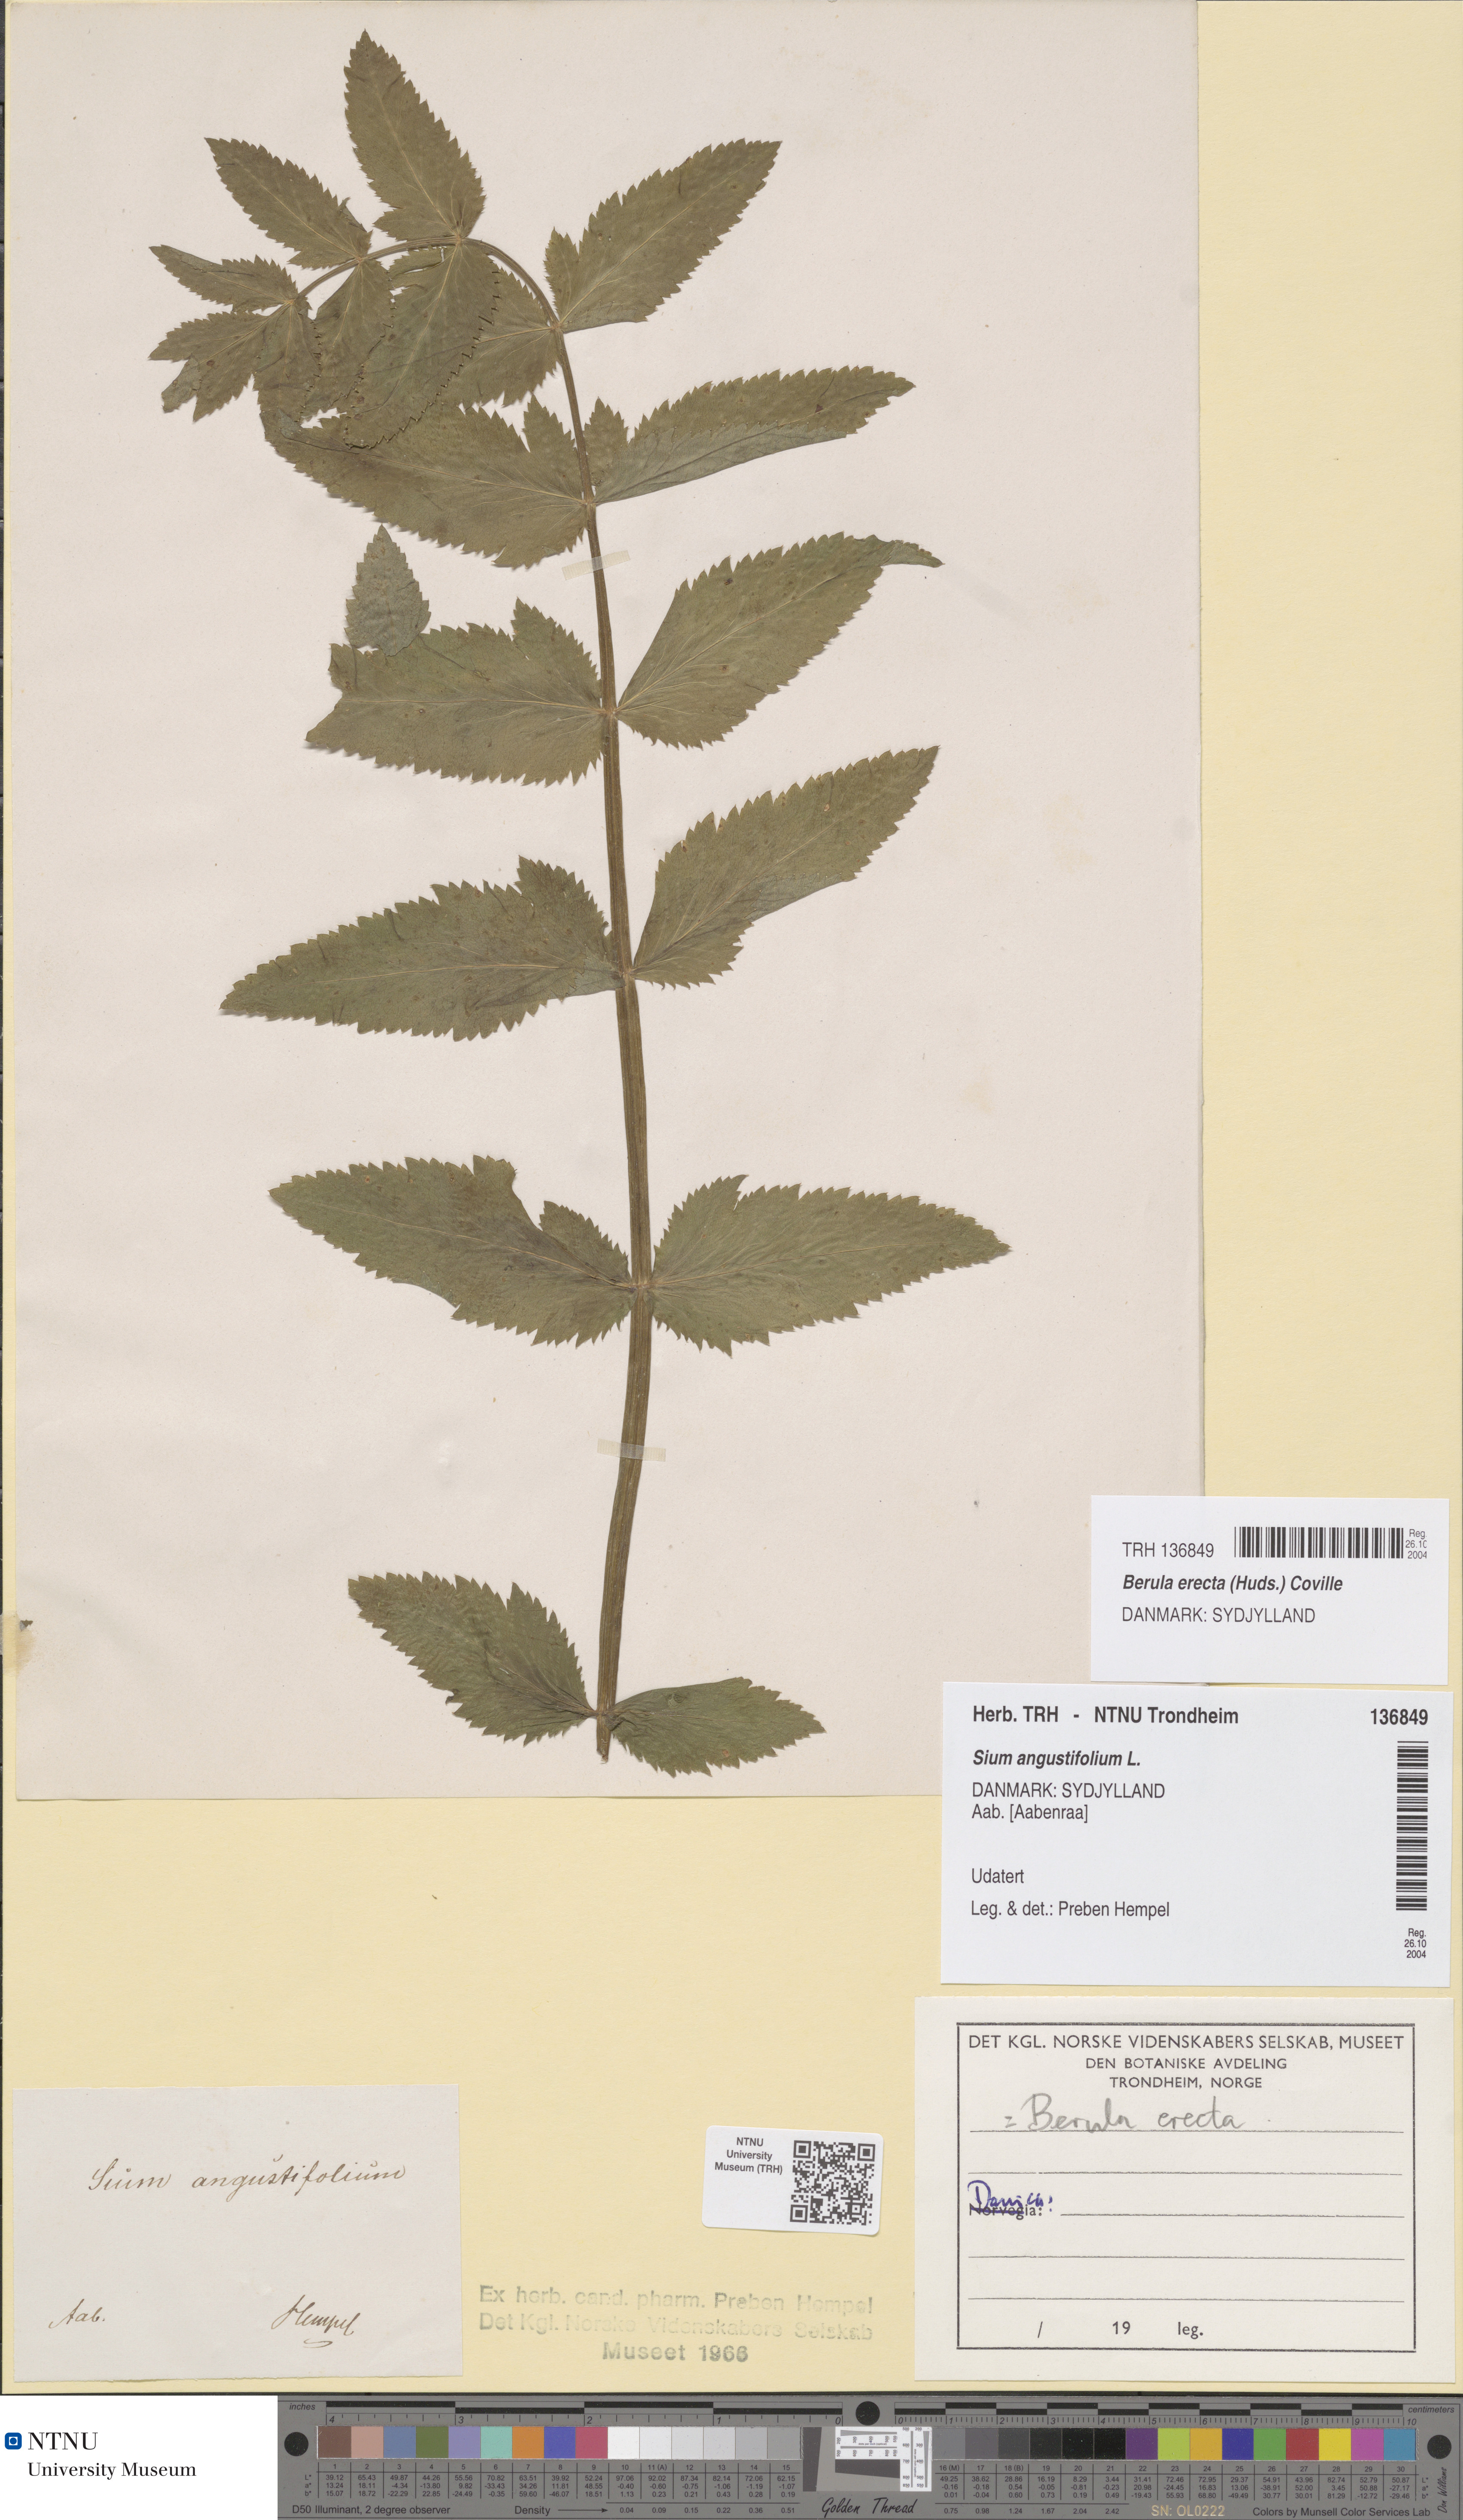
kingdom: Plantae
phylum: Tracheophyta
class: Magnoliopsida
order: Apiales
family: Apiaceae
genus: Berula
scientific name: Berula erecta
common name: Lesser water-parsnip
